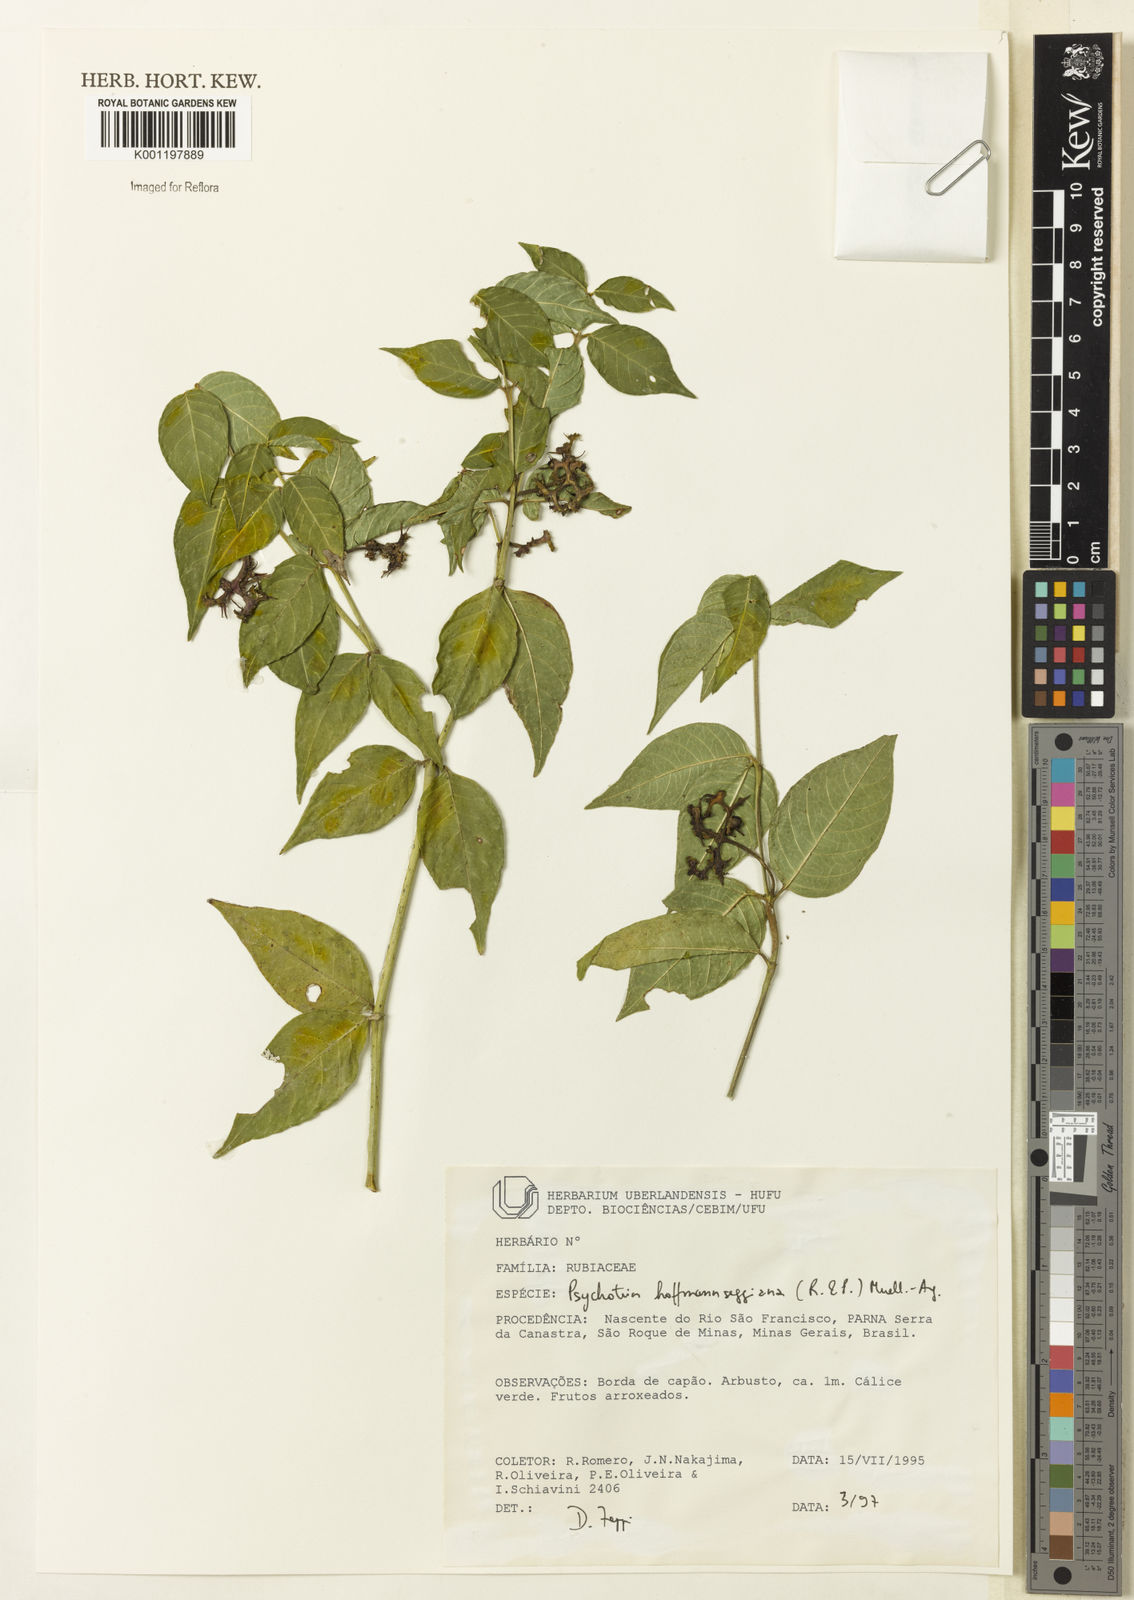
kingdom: Plantae
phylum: Tracheophyta
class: Magnoliopsida
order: Gentianales
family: Rubiaceae
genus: Psychotria
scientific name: Psychotria
